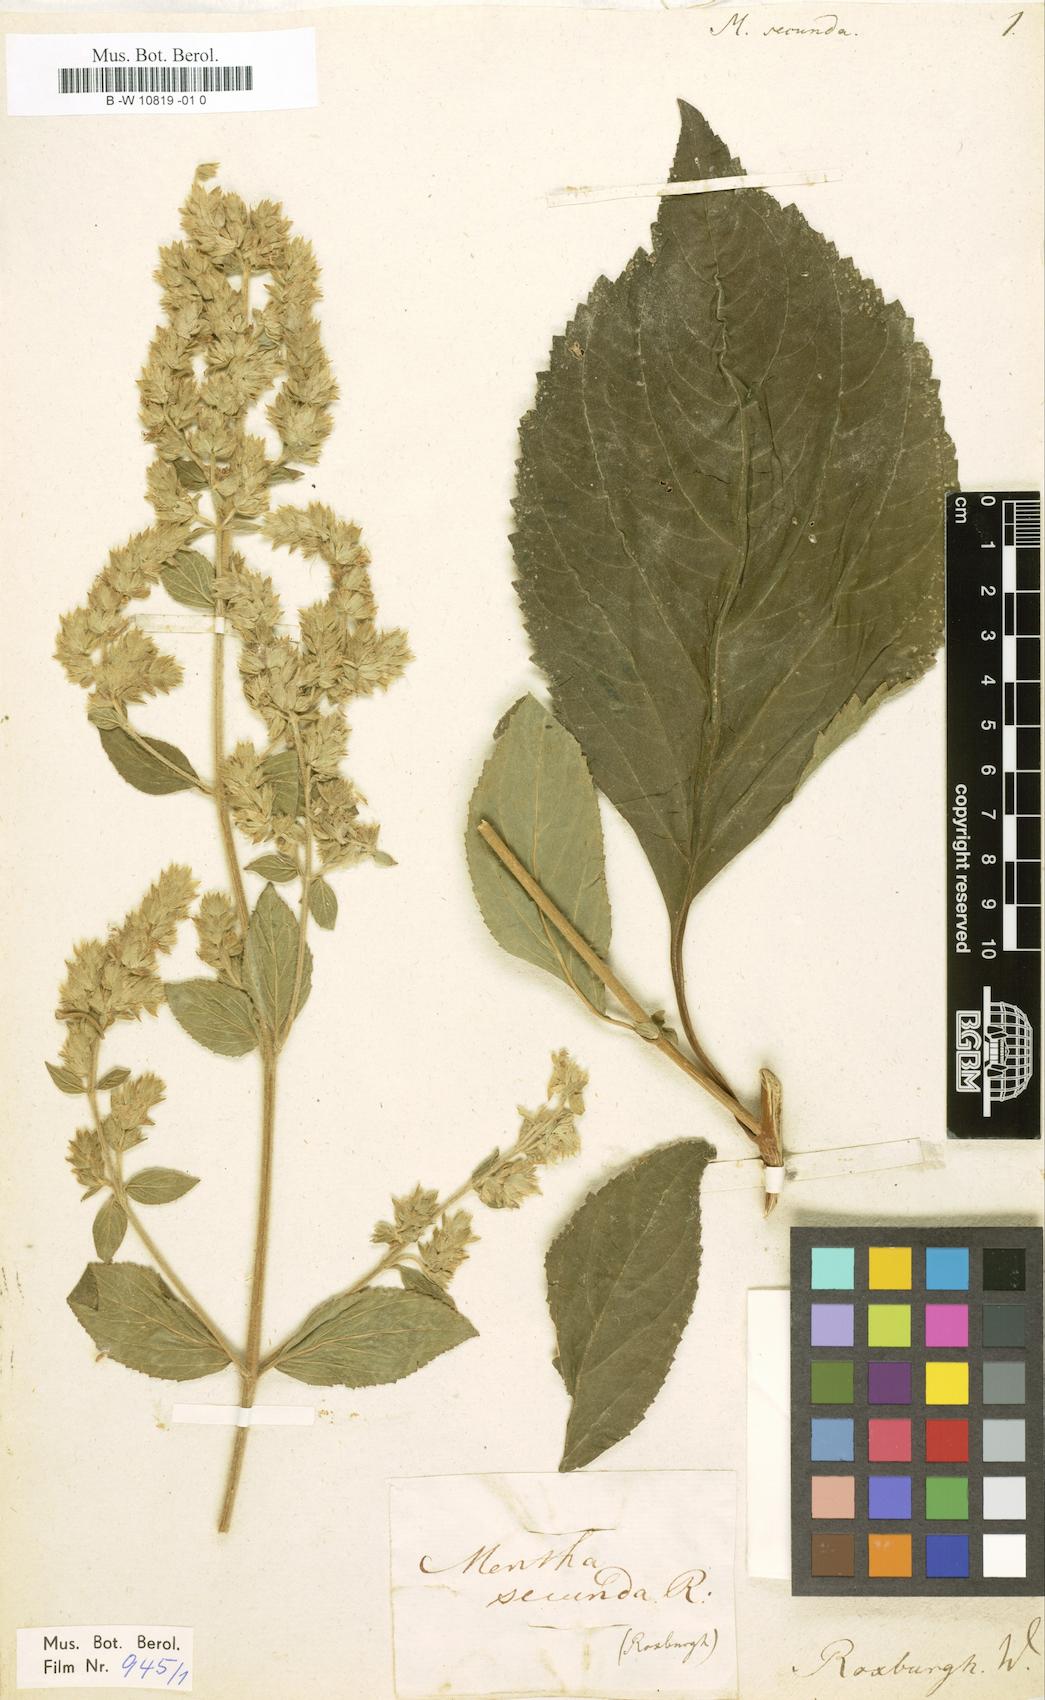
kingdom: Plantae
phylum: Tracheophyta
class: Magnoliopsida
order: Lamiales
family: Lamiaceae
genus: Pogostemon
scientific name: Pogostemon plectranthoides
